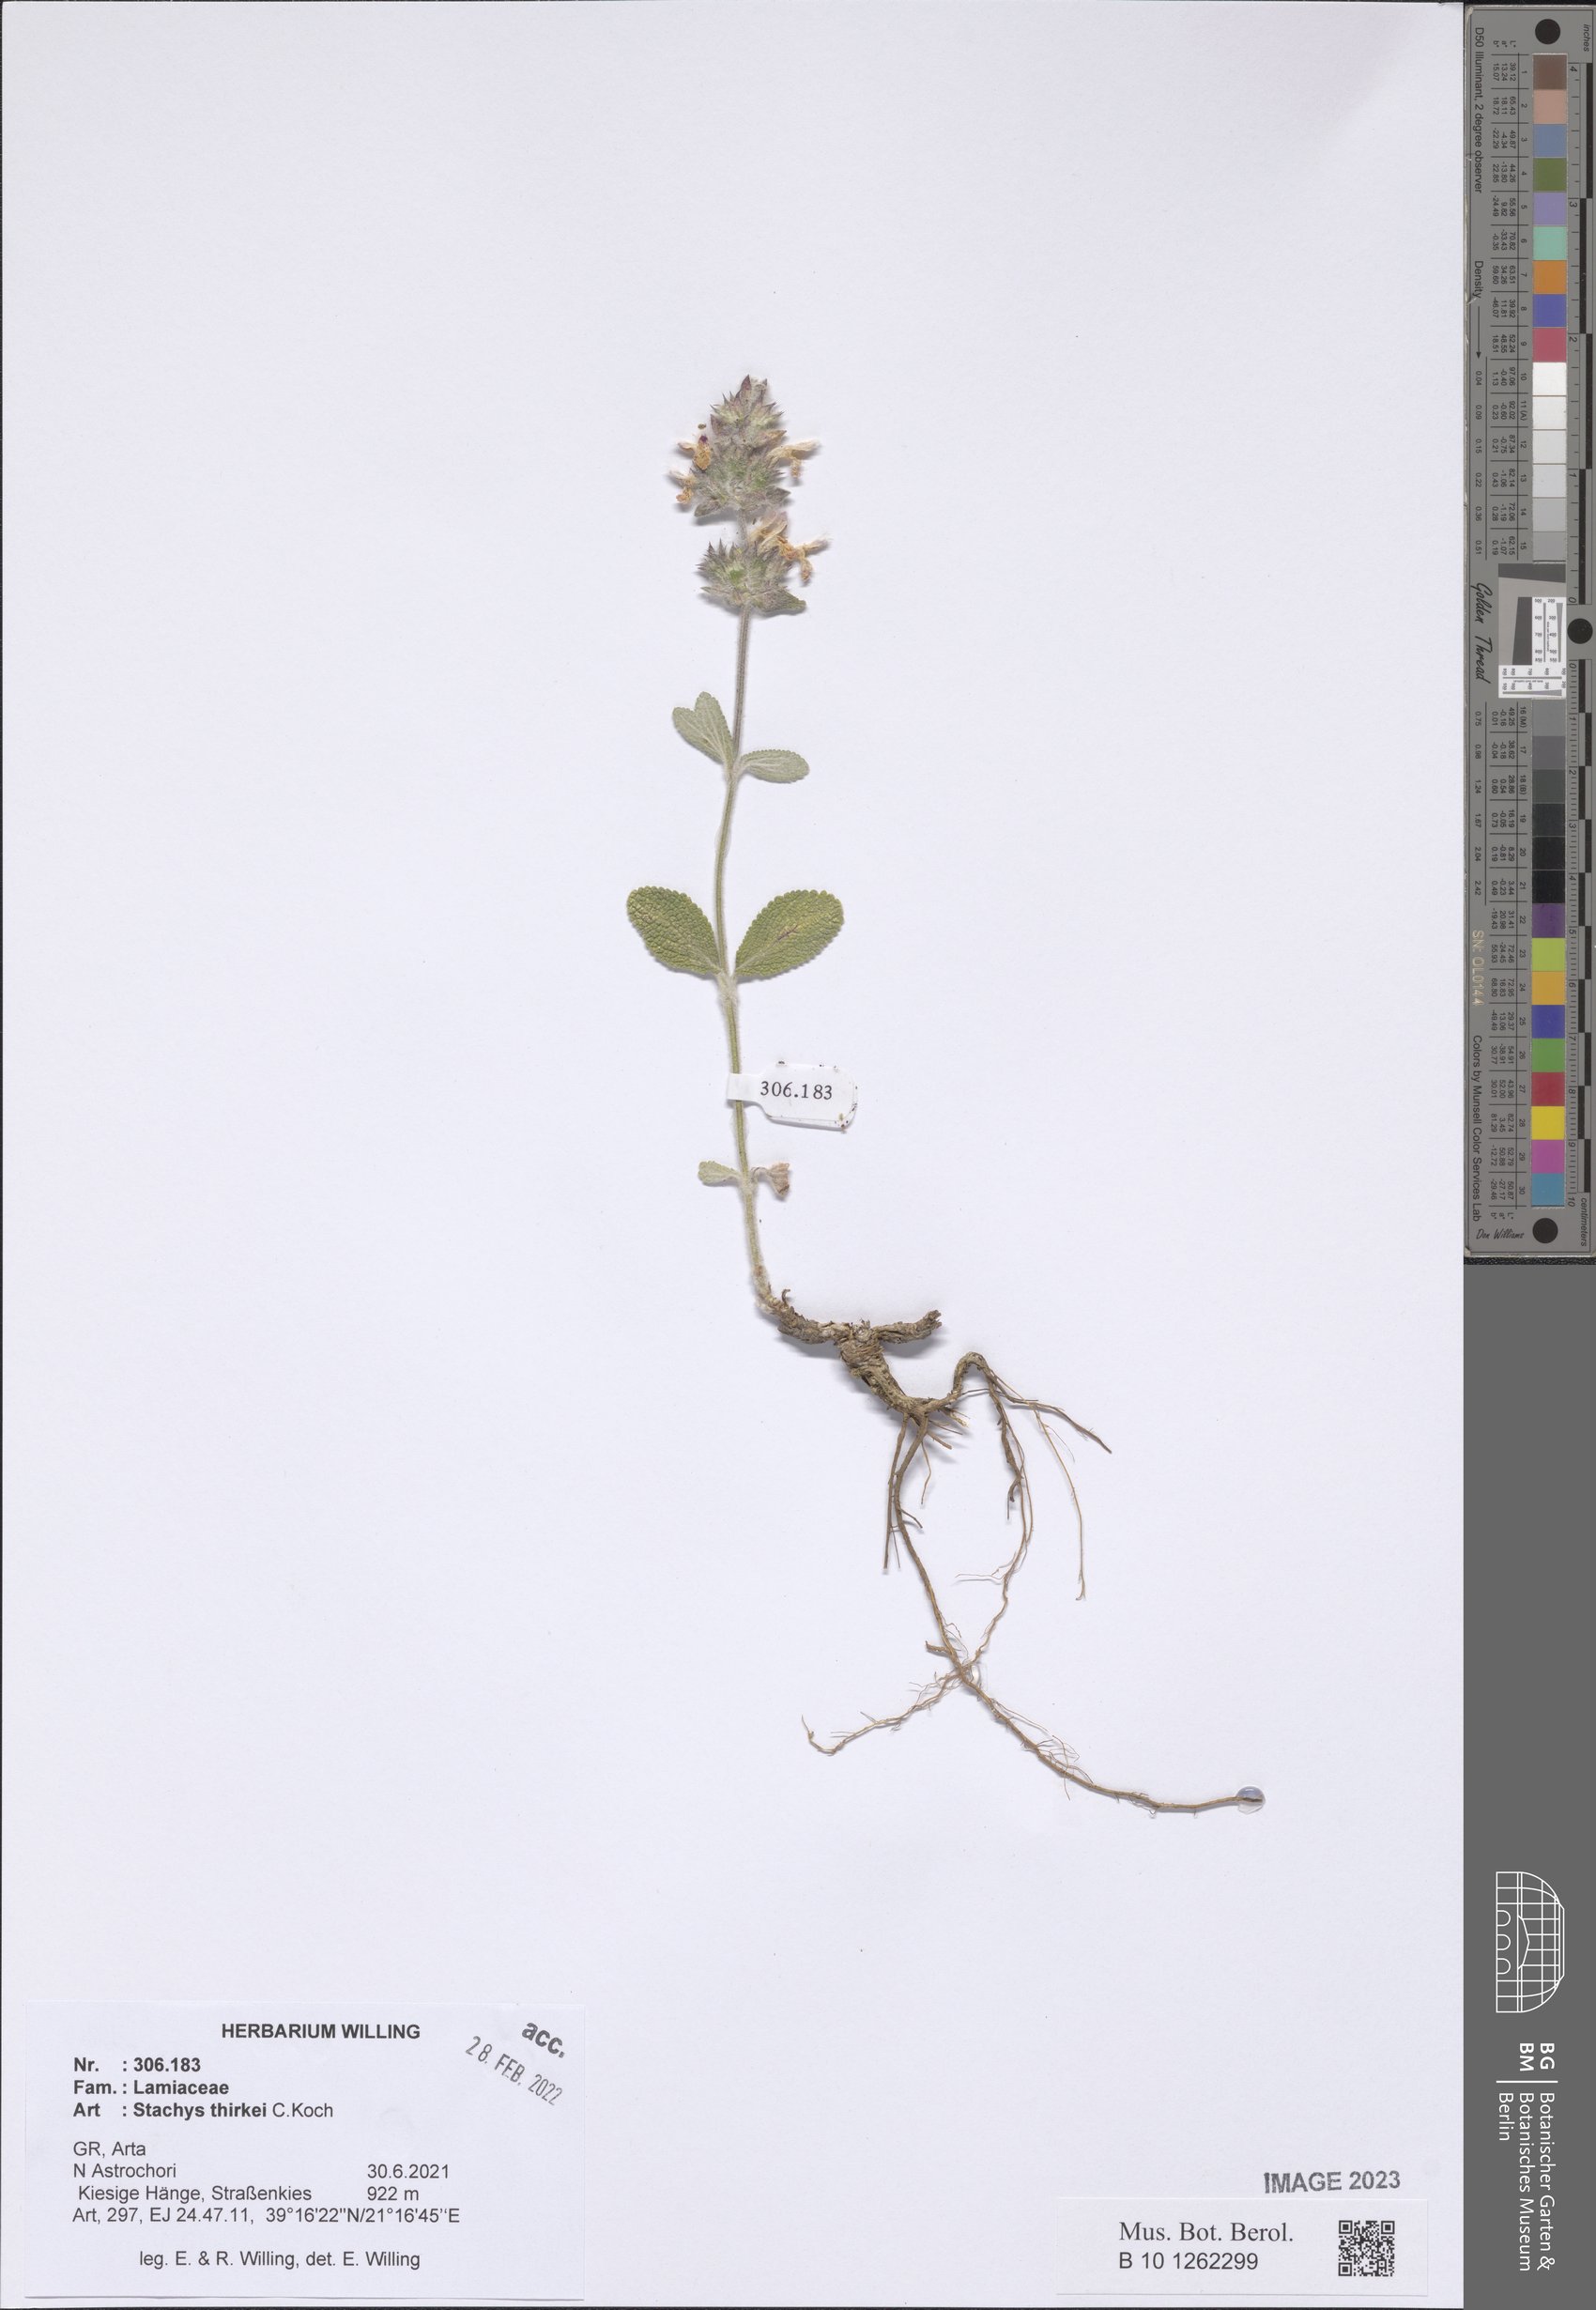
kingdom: Plantae
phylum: Tracheophyta
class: Magnoliopsida
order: Lamiales
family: Lamiaceae
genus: Stachys
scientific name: Stachys thirkei
